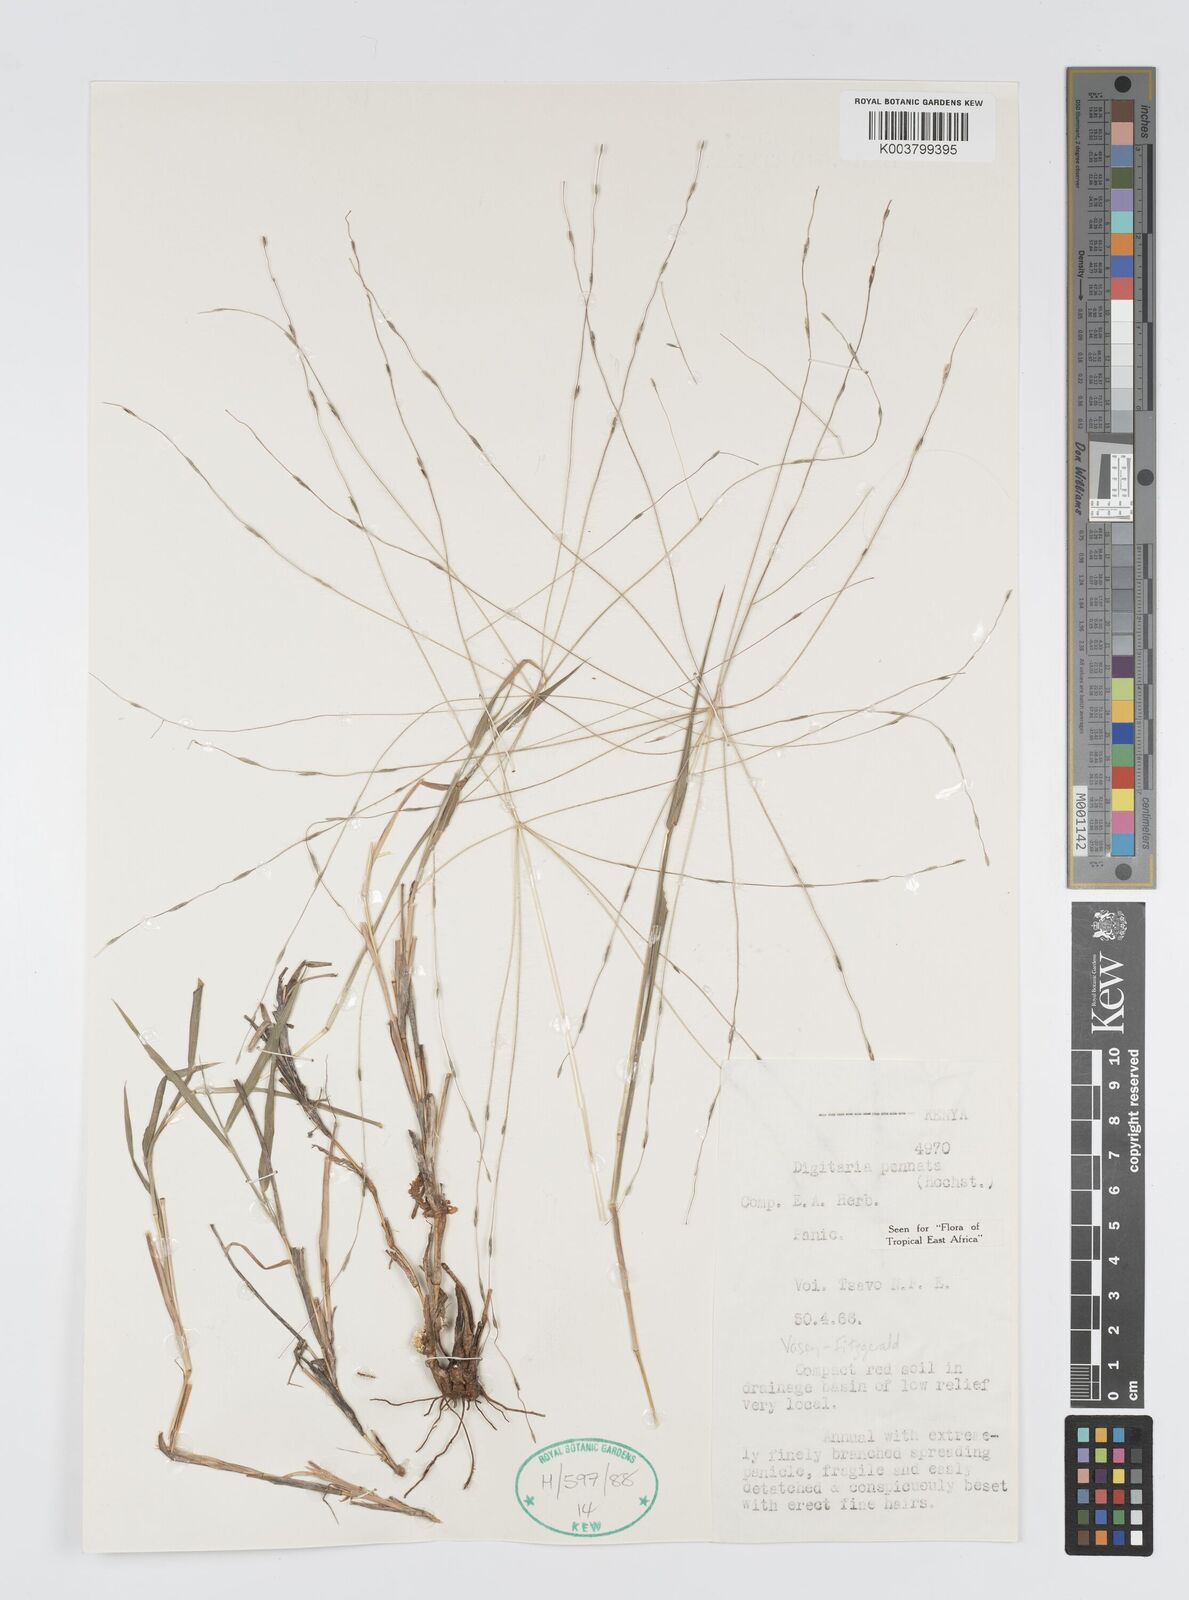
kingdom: Plantae
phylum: Tracheophyta
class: Liliopsida
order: Poales
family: Poaceae
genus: Digitaria
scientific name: Digitaria
